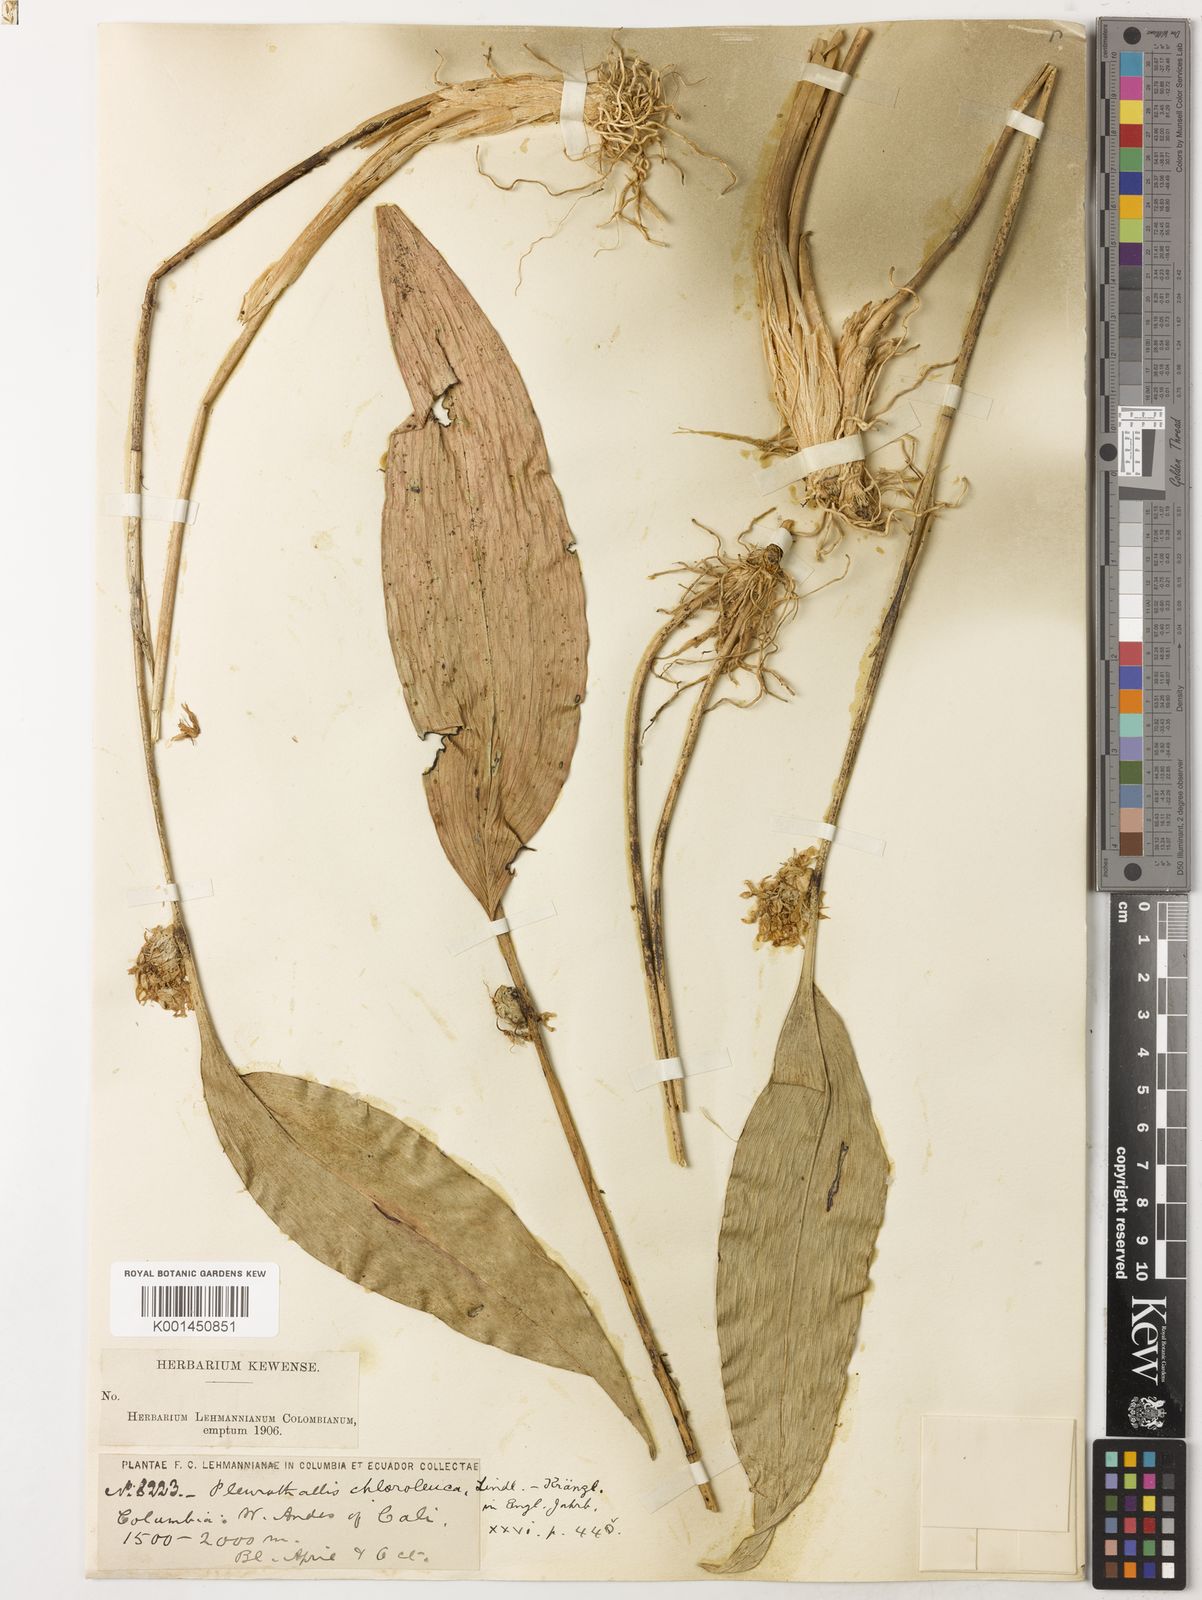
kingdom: Plantae
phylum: Tracheophyta
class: Liliopsida
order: Asparagales
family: Orchidaceae
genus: Pleurothallis
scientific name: Pleurothallis chloroleuca
